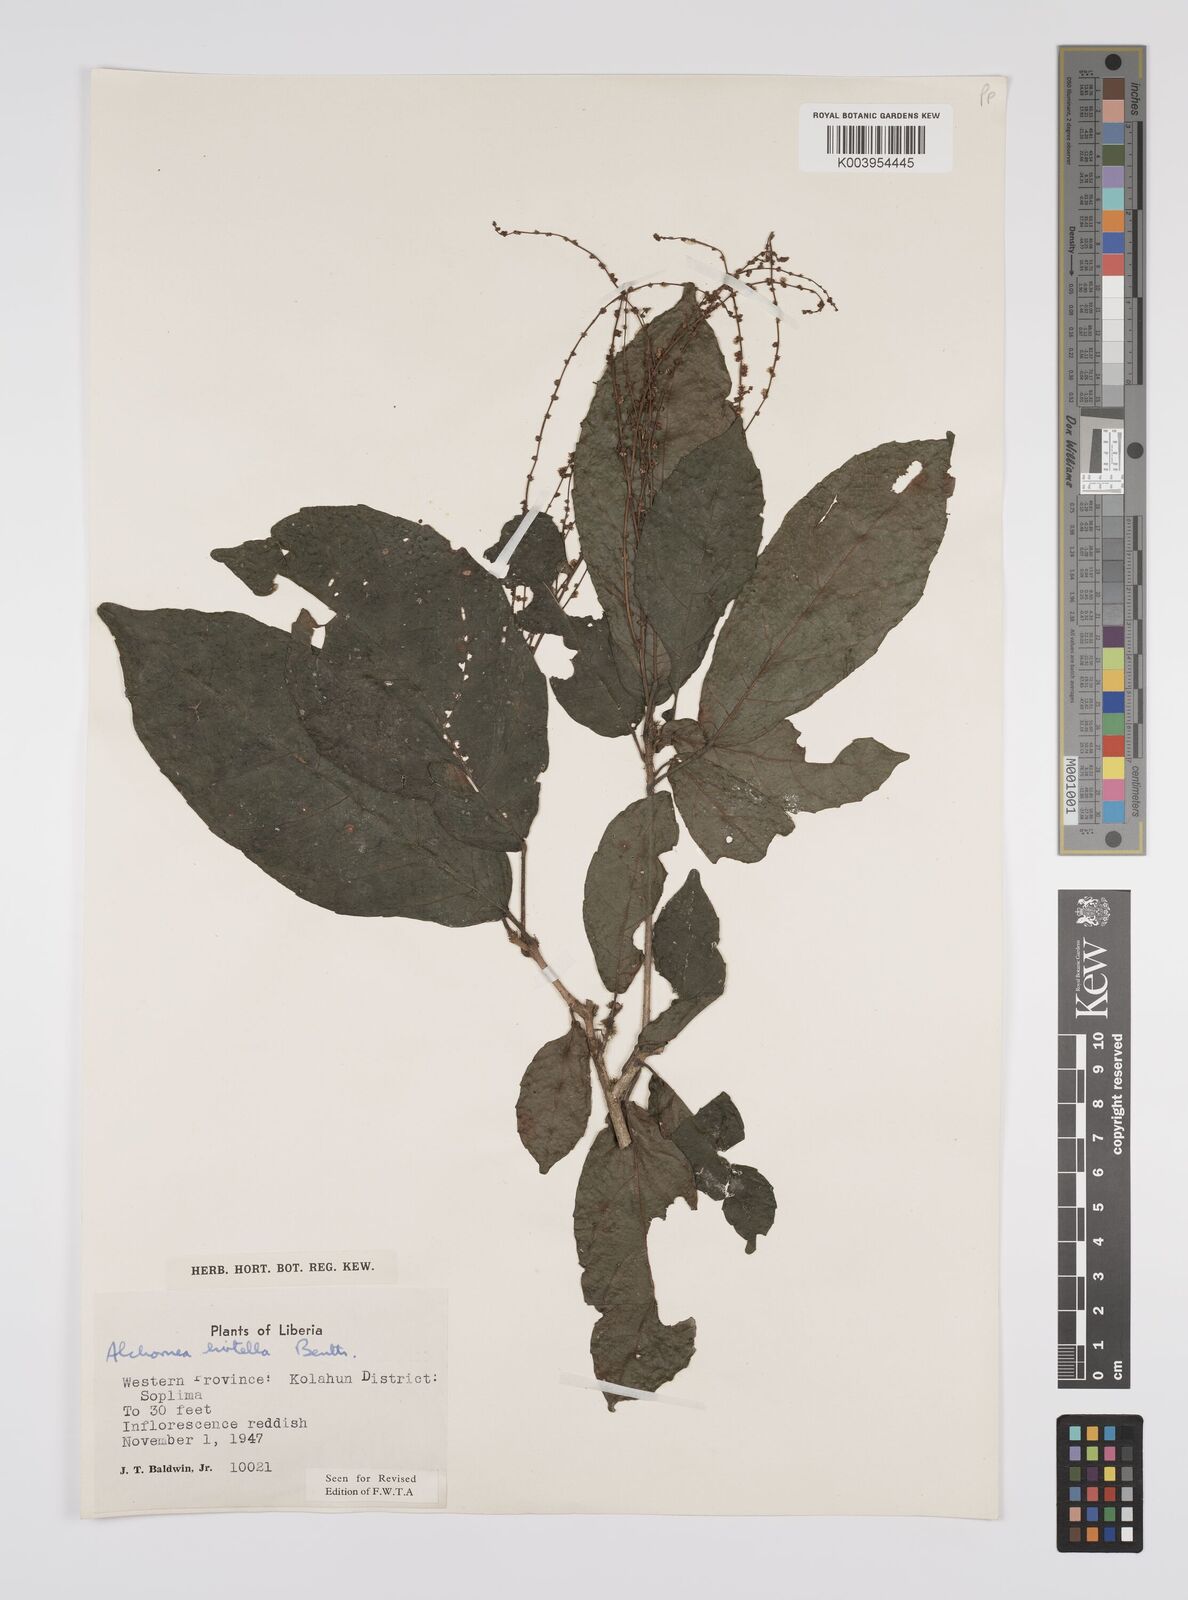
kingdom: Plantae
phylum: Tracheophyta
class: Magnoliopsida
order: Malpighiales
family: Euphorbiaceae
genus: Alchornea
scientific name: Alchornea hirtella
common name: Forest bead-string
